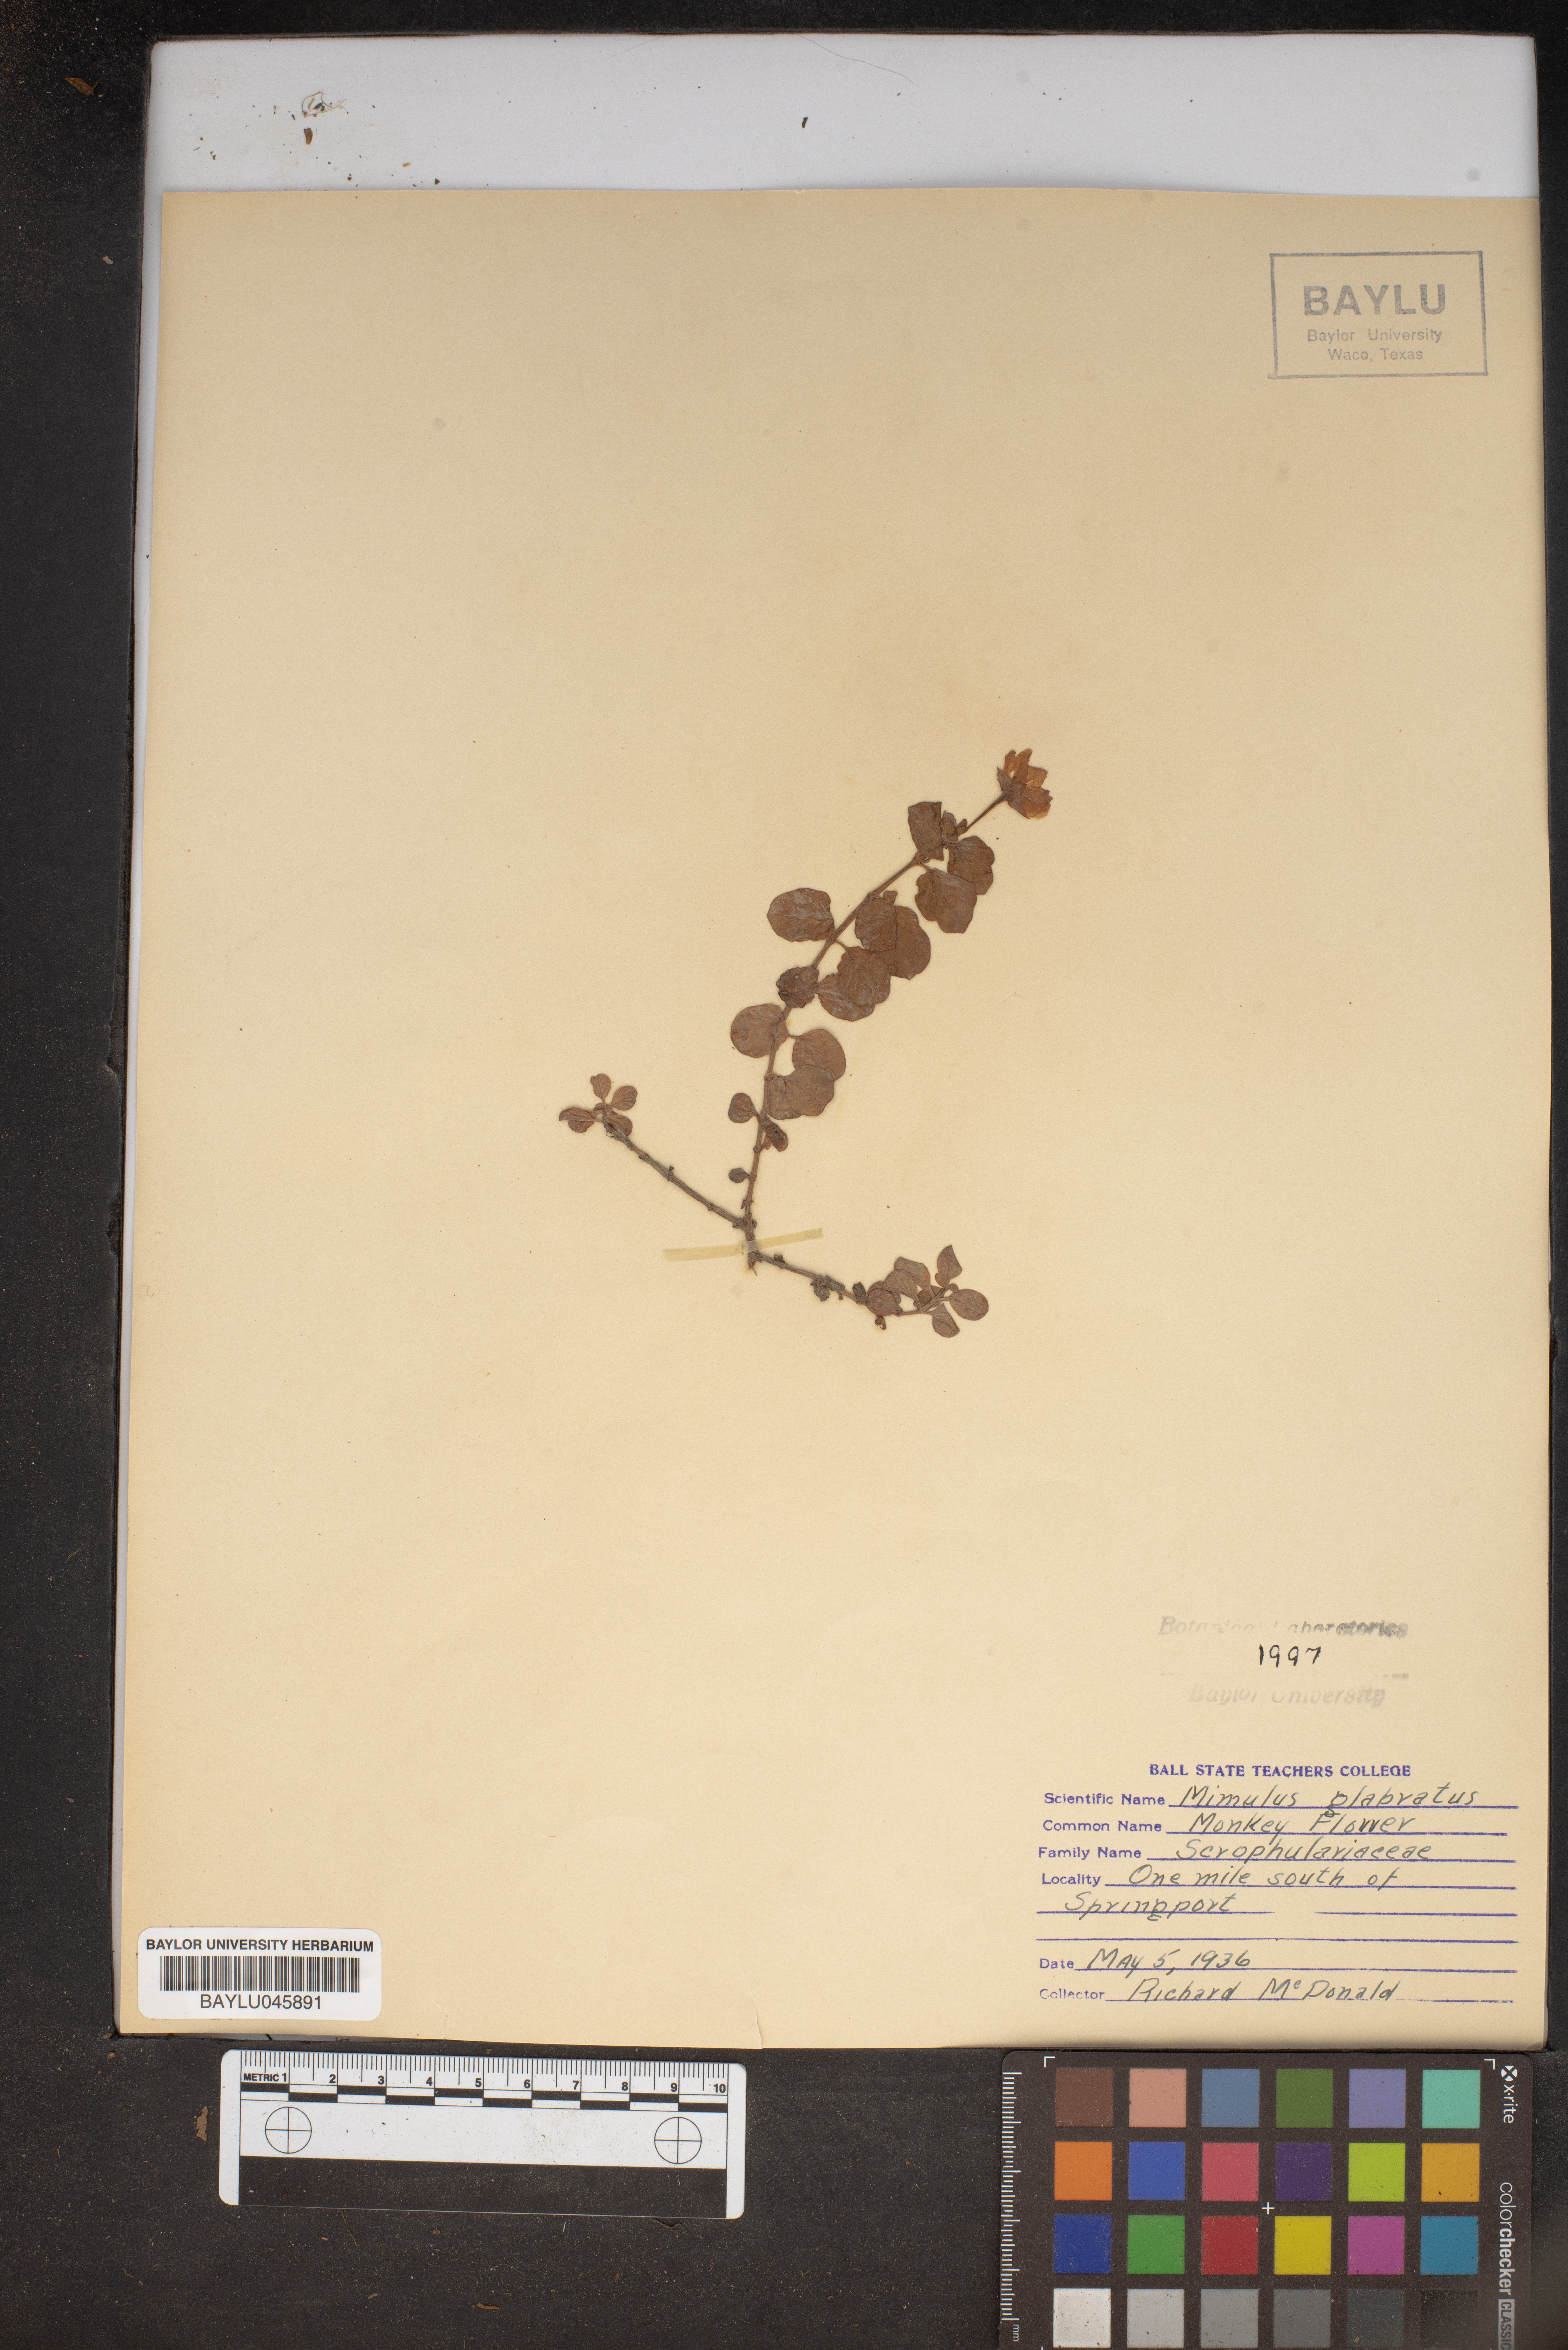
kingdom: Plantae
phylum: Tracheophyta
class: Magnoliopsida
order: Lamiales
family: Phrymaceae
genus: Erythranthe
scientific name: Erythranthe glabrata
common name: Round-leaved monkeyflower
